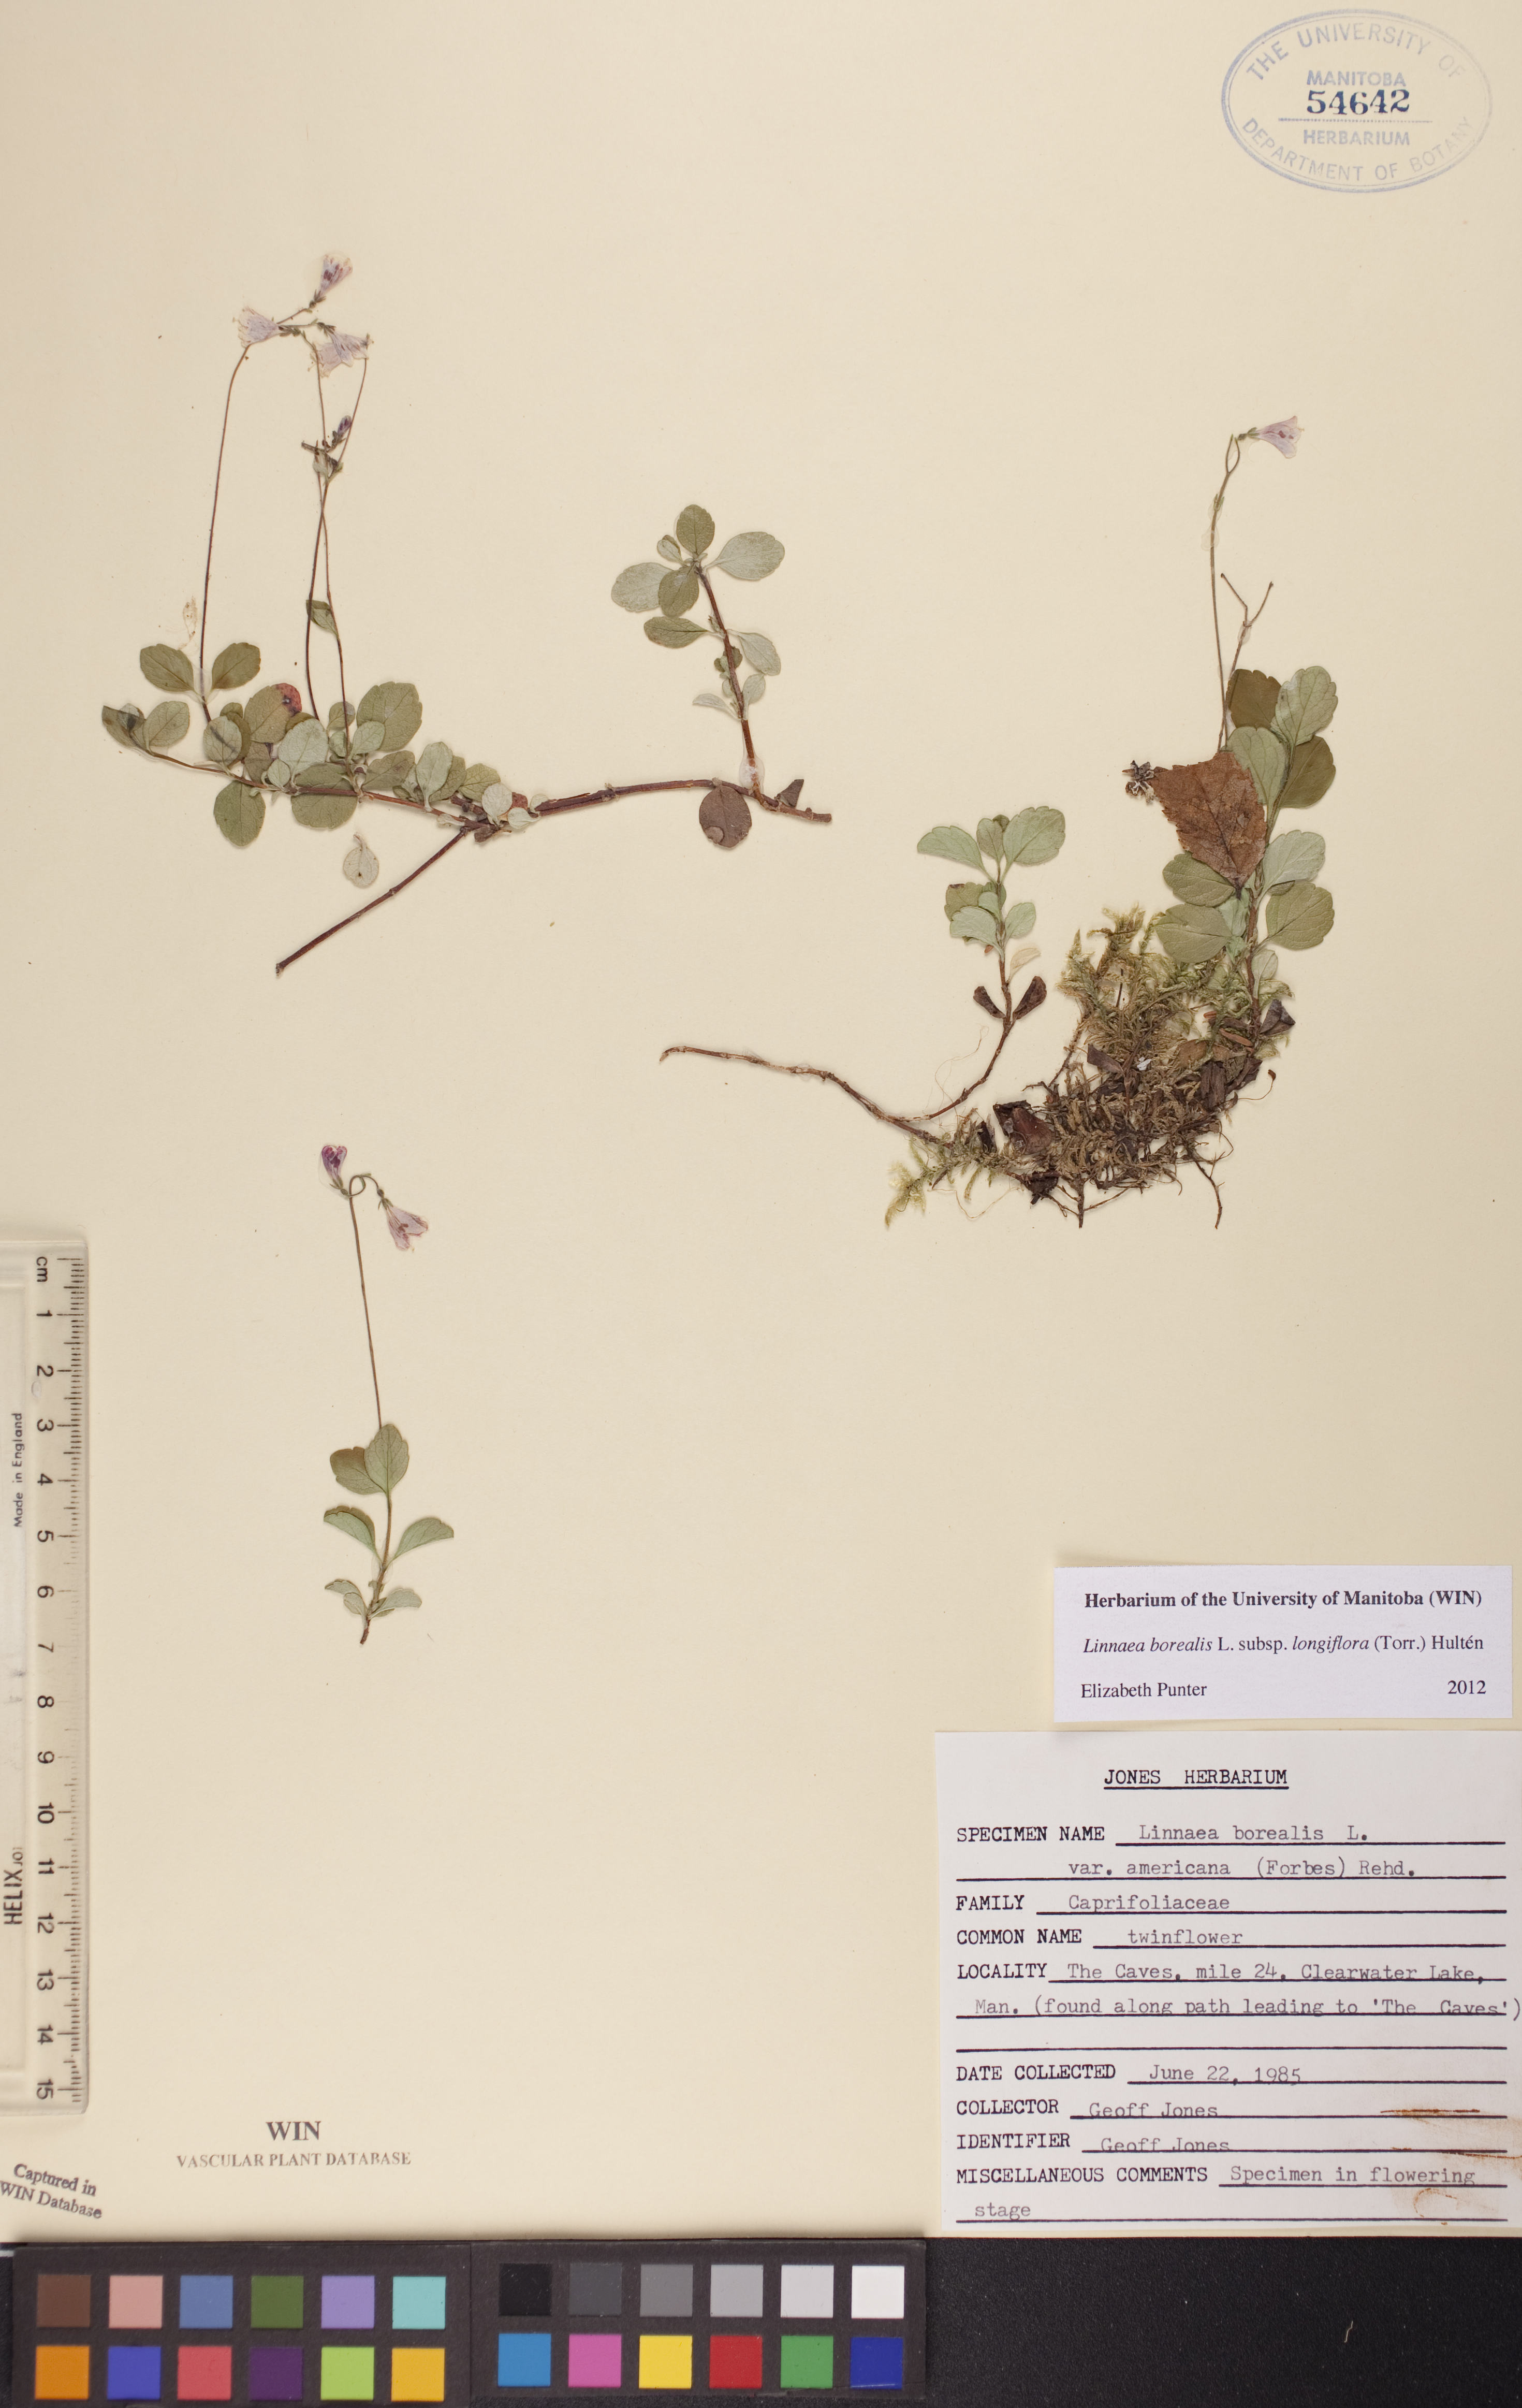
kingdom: Plantae
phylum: Tracheophyta
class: Magnoliopsida
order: Dipsacales
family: Caprifoliaceae
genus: Linnaea
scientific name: Linnaea borealis
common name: Twinflower
